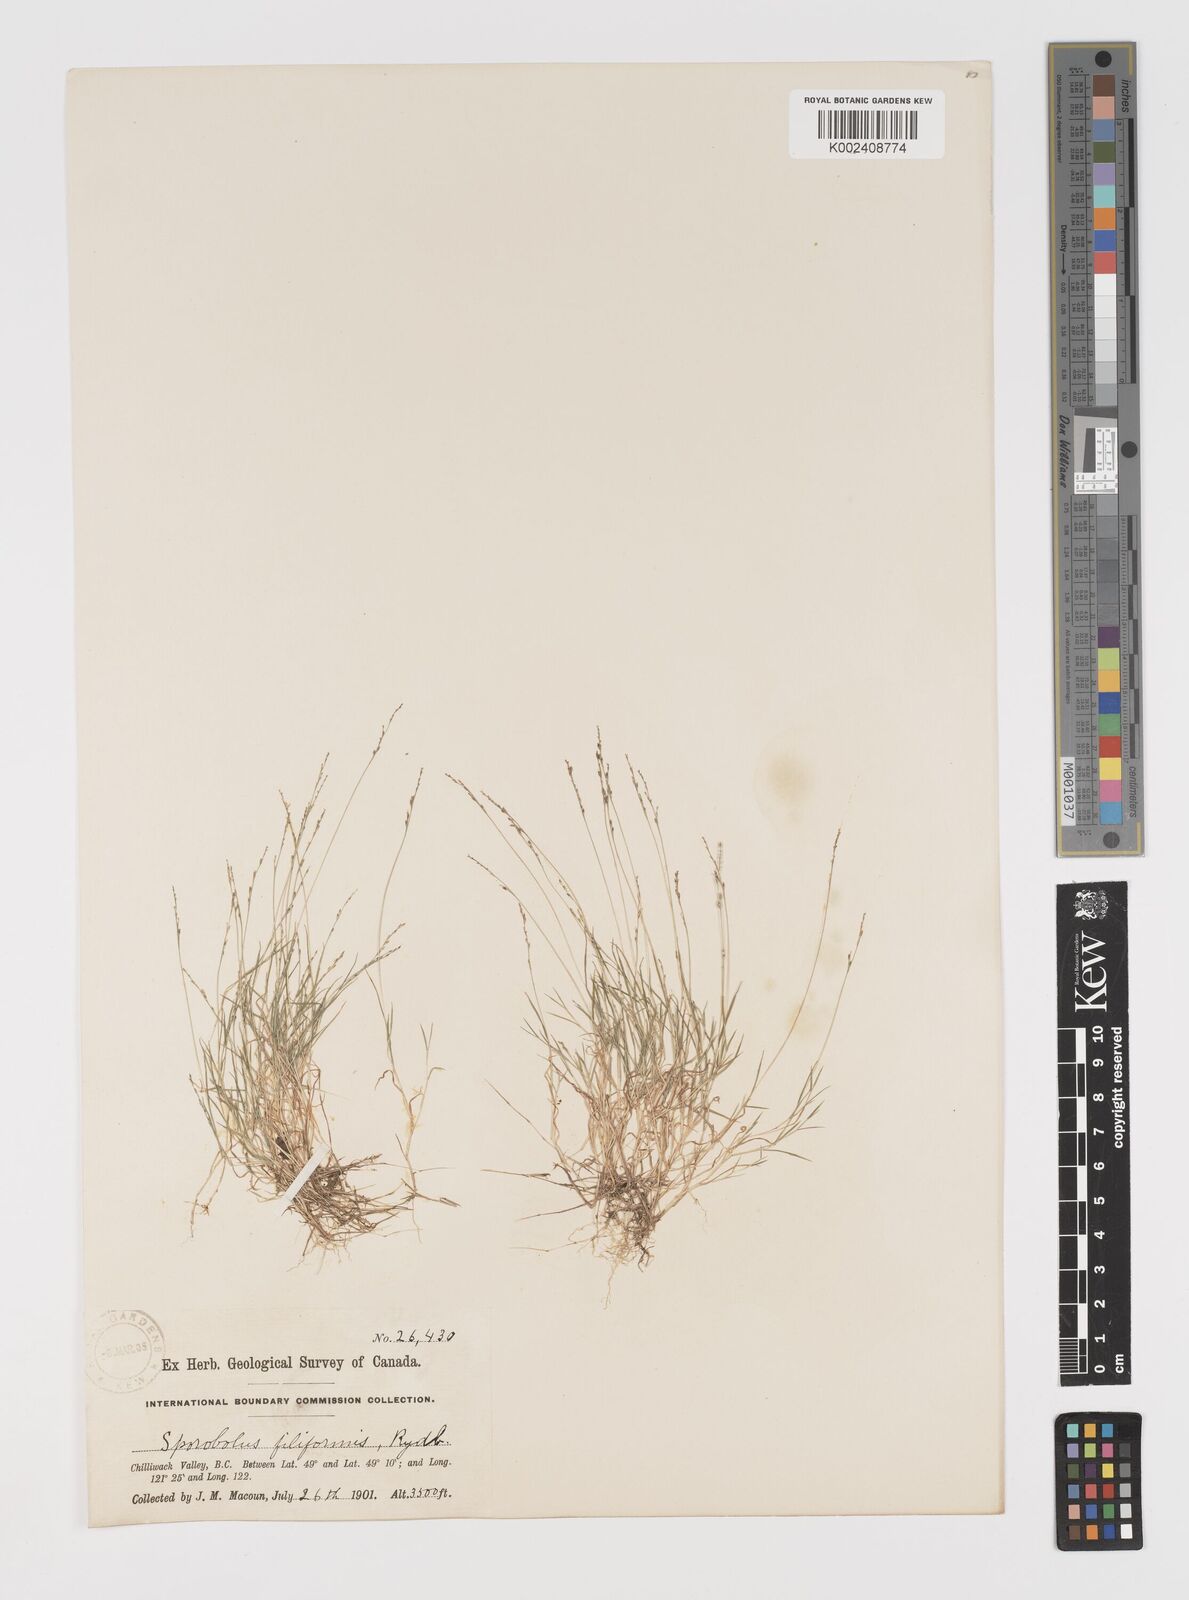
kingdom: Plantae
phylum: Tracheophyta
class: Liliopsida
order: Poales
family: Poaceae
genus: Leptochloa
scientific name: Leptochloa mucronata
